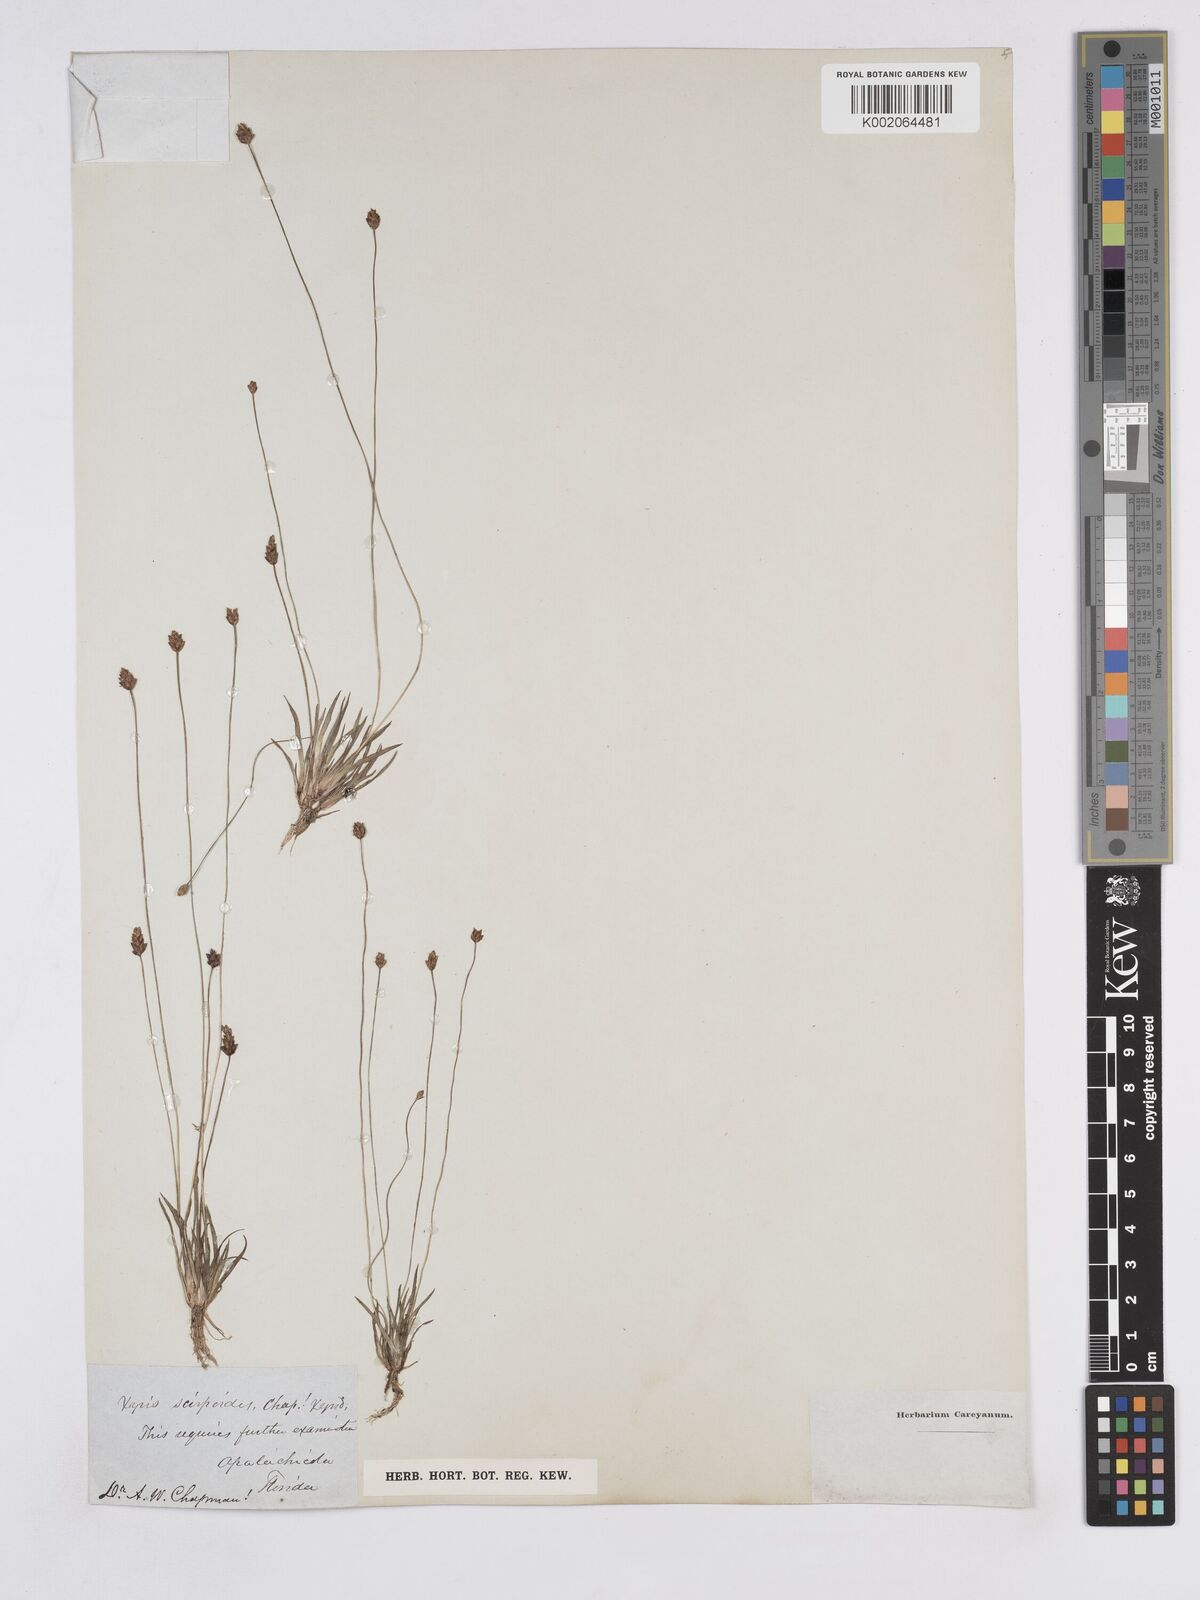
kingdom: Plantae
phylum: Tracheophyta
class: Liliopsida
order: Poales
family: Xyridaceae
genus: Xyris
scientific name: Xyris flabelliformis
